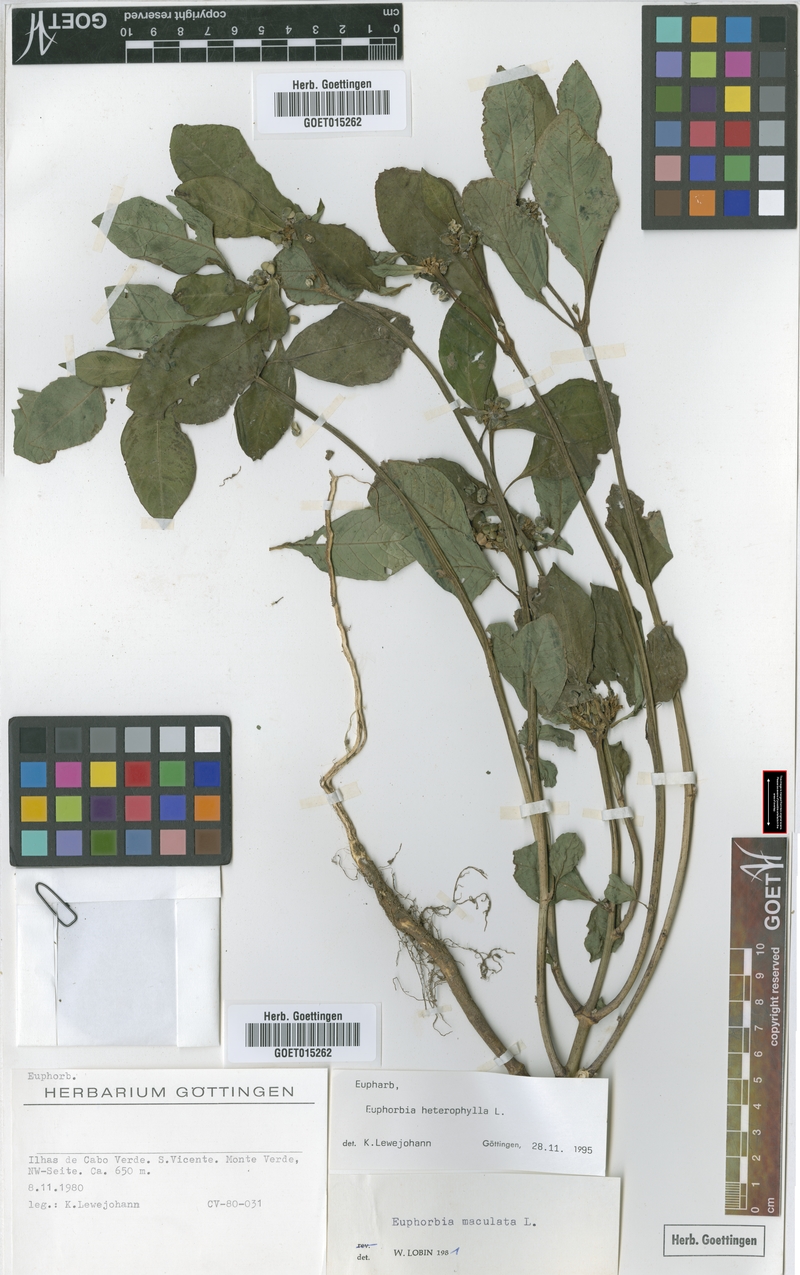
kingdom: Plantae
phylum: Tracheophyta
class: Magnoliopsida
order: Malpighiales
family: Euphorbiaceae
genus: Euphorbia
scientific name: Euphorbia heterophylla
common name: Mexican fireplant
